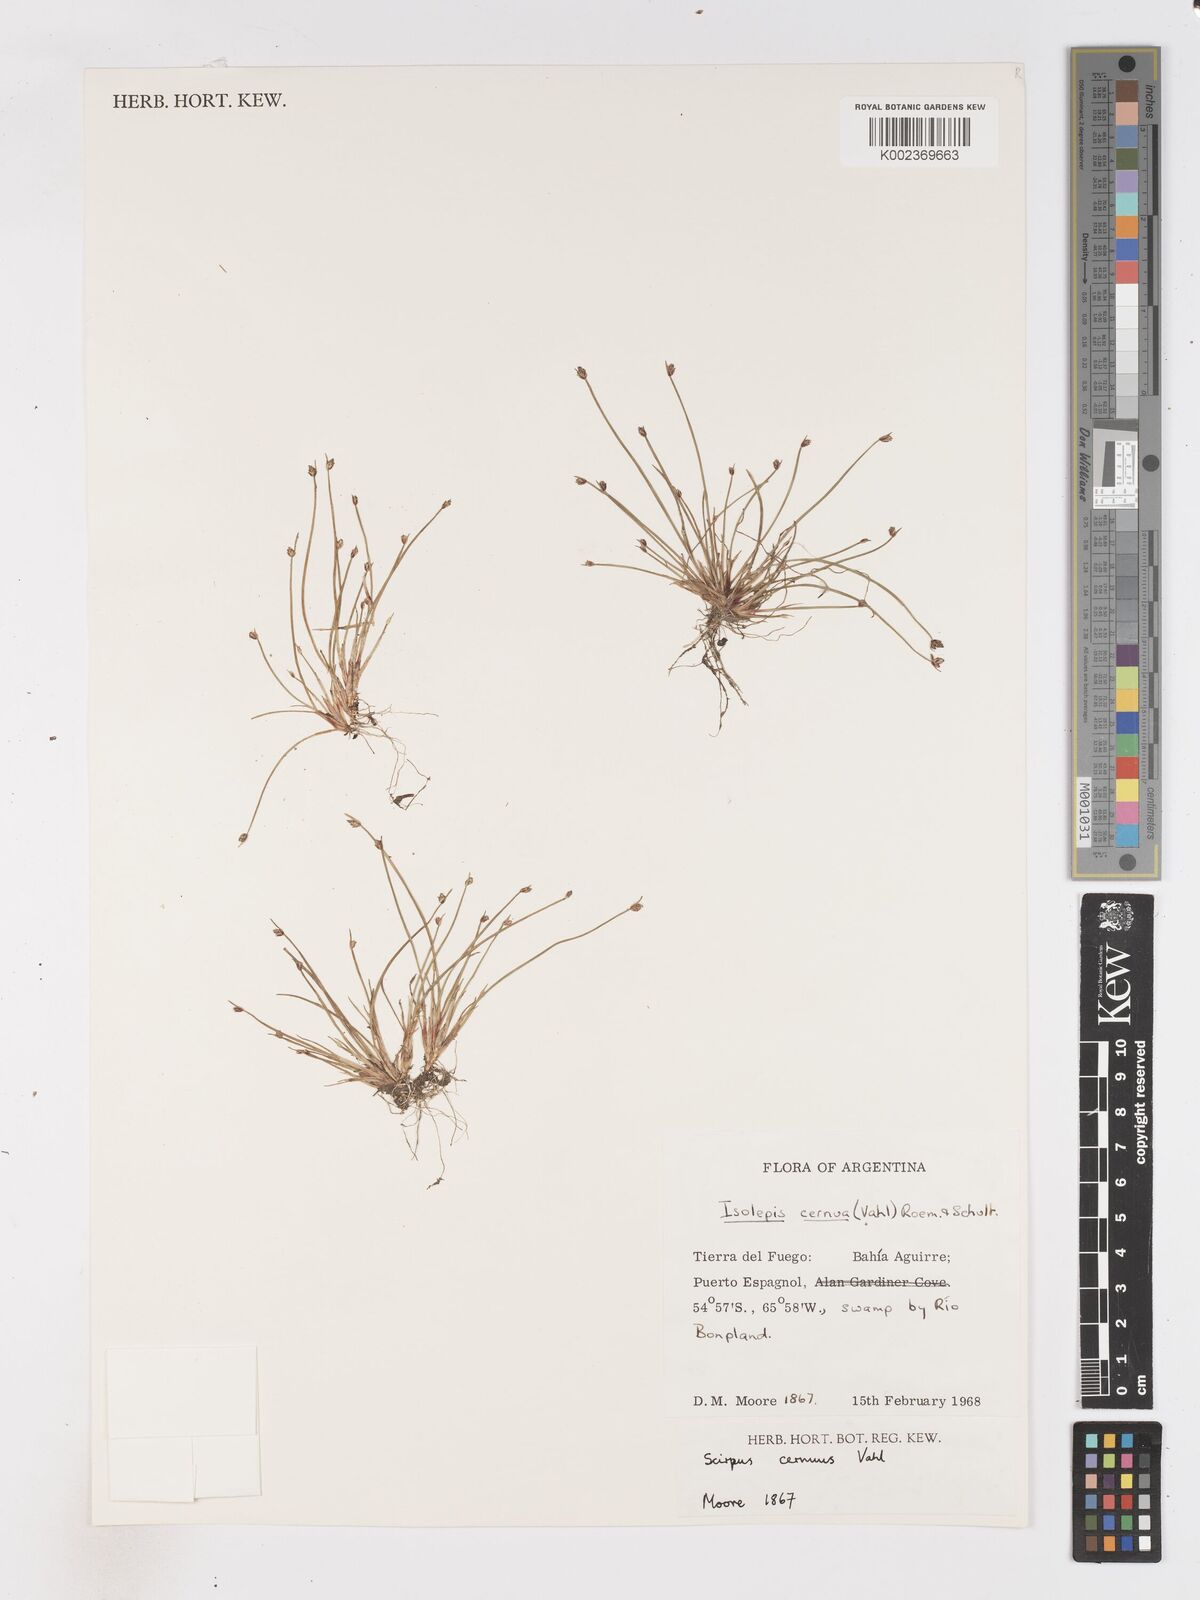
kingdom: Plantae
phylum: Tracheophyta
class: Liliopsida
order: Poales
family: Cyperaceae
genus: Isolepis
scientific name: Isolepis cernua
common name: Slender club-rush
